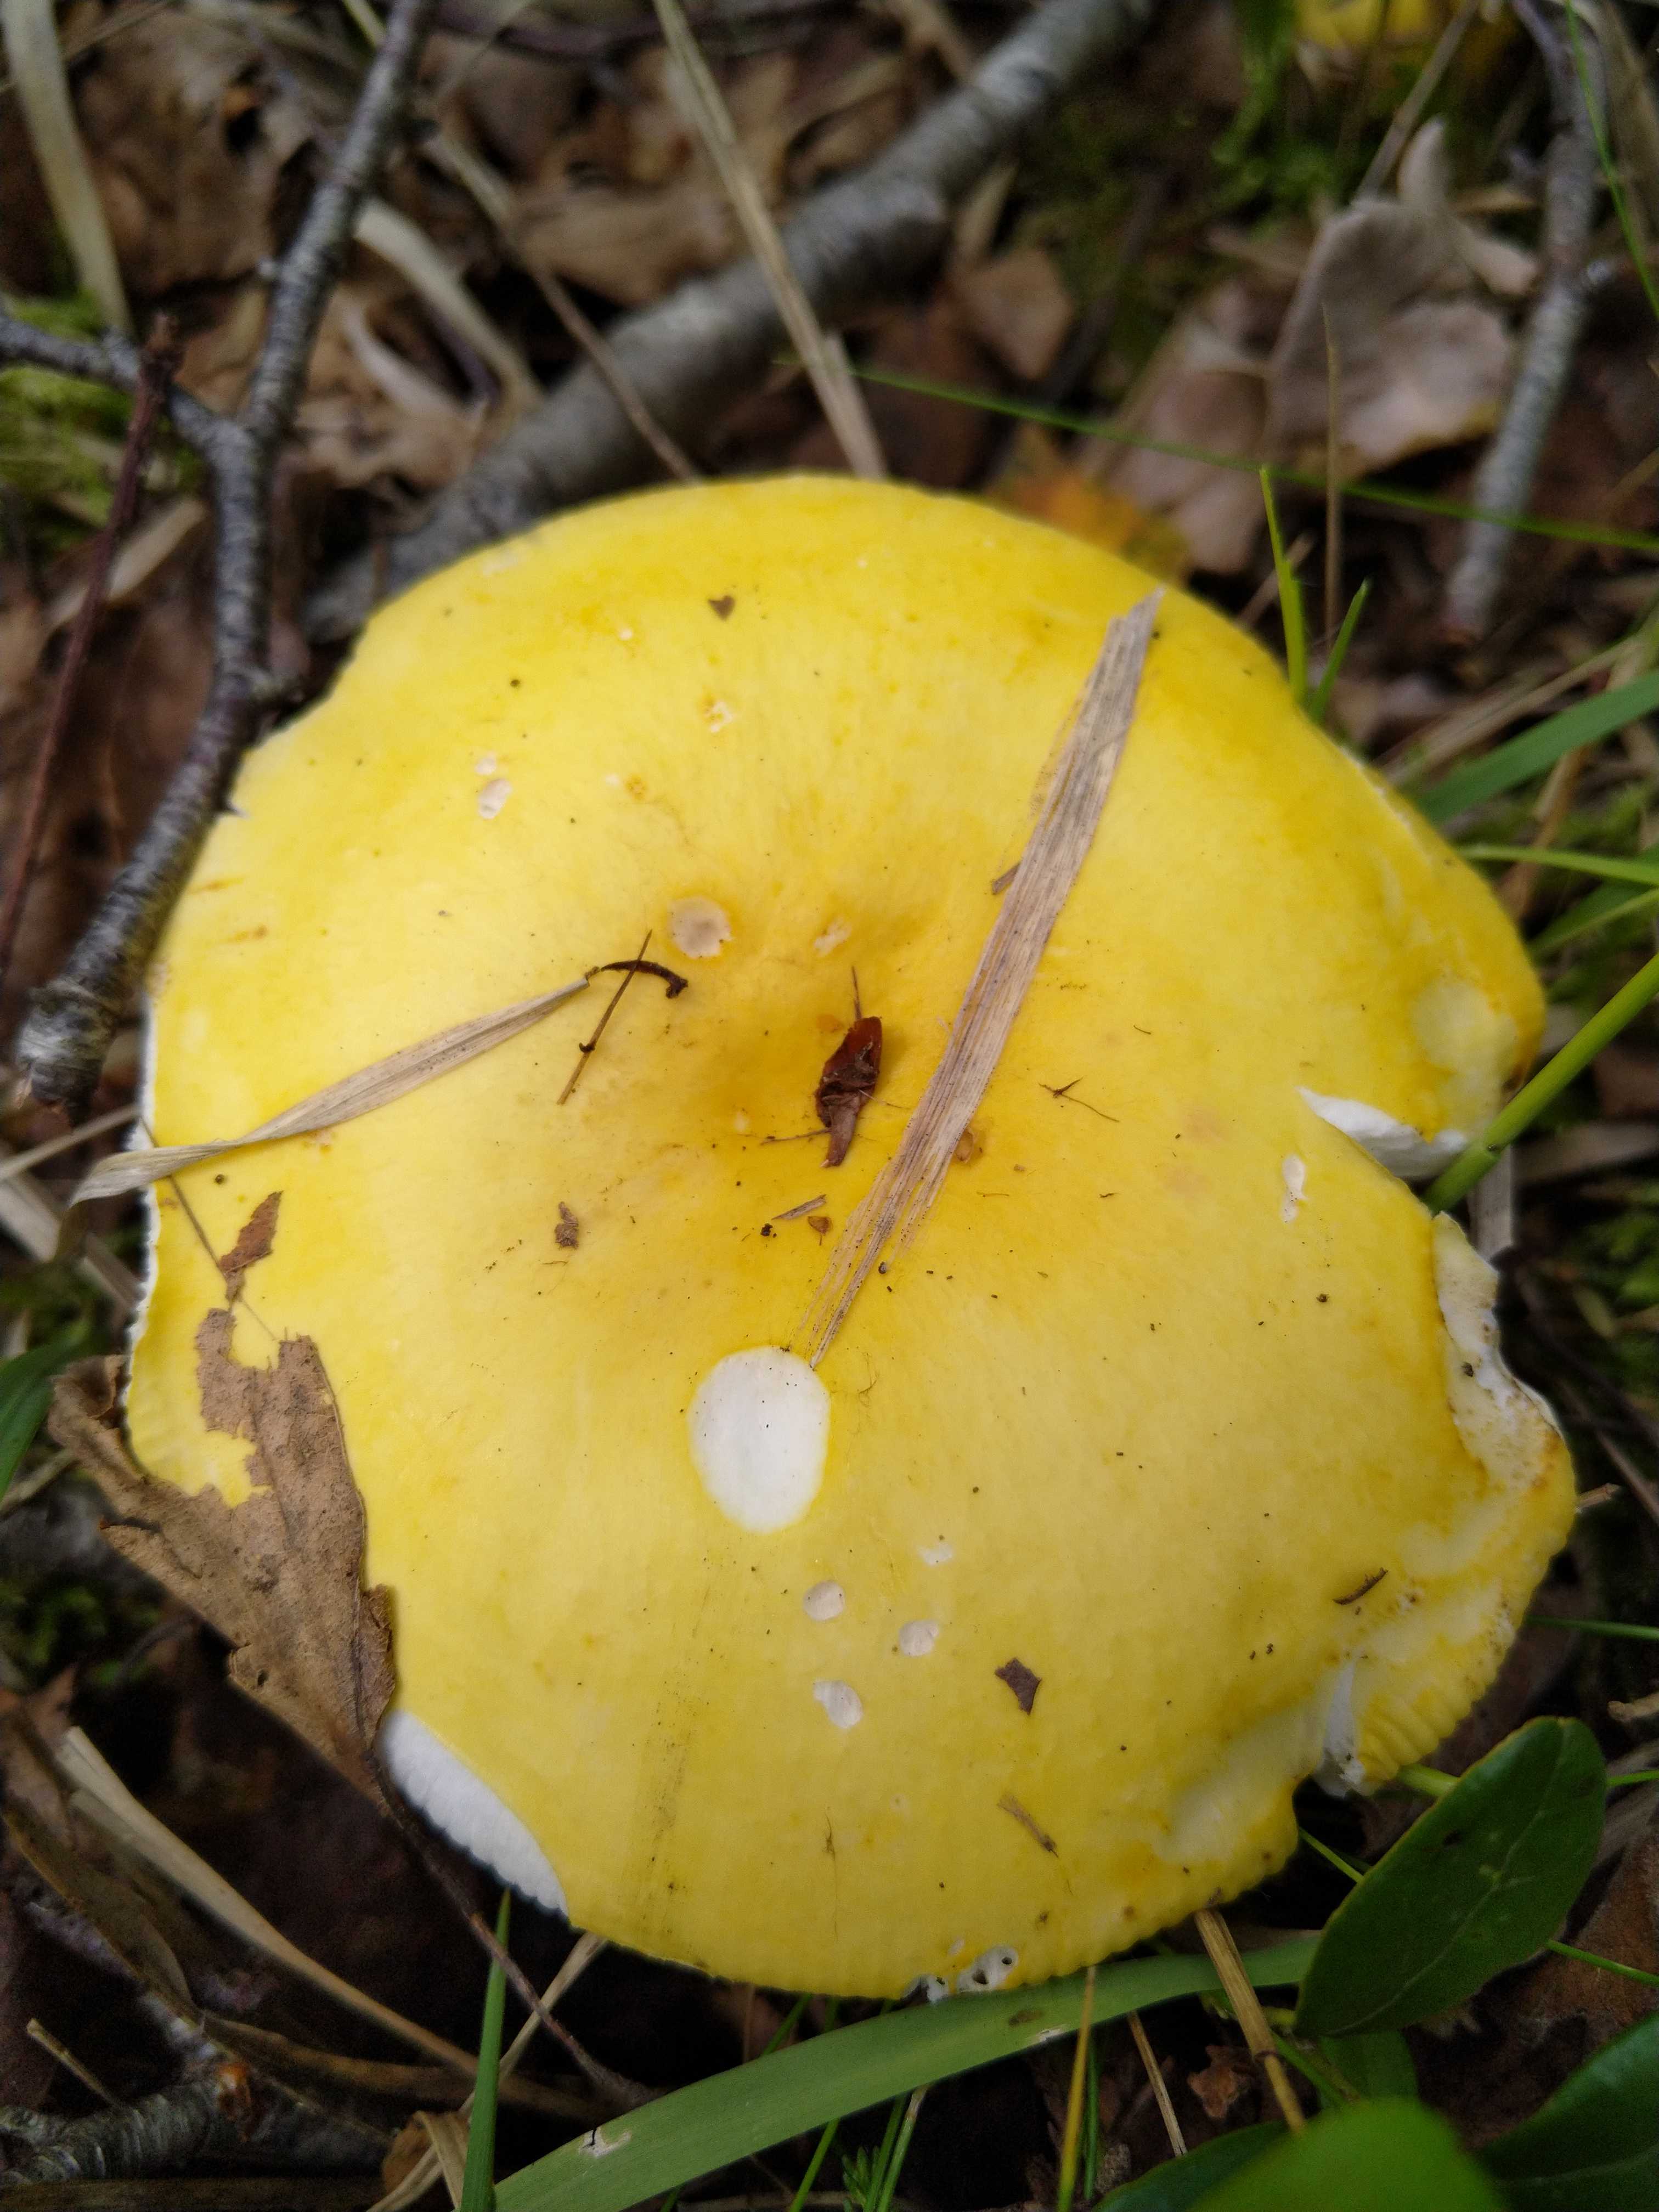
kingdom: Fungi
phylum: Basidiomycota
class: Agaricomycetes
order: Russulales
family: Russulaceae
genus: Russula
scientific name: Russula claroflava
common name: birke-skørhat
